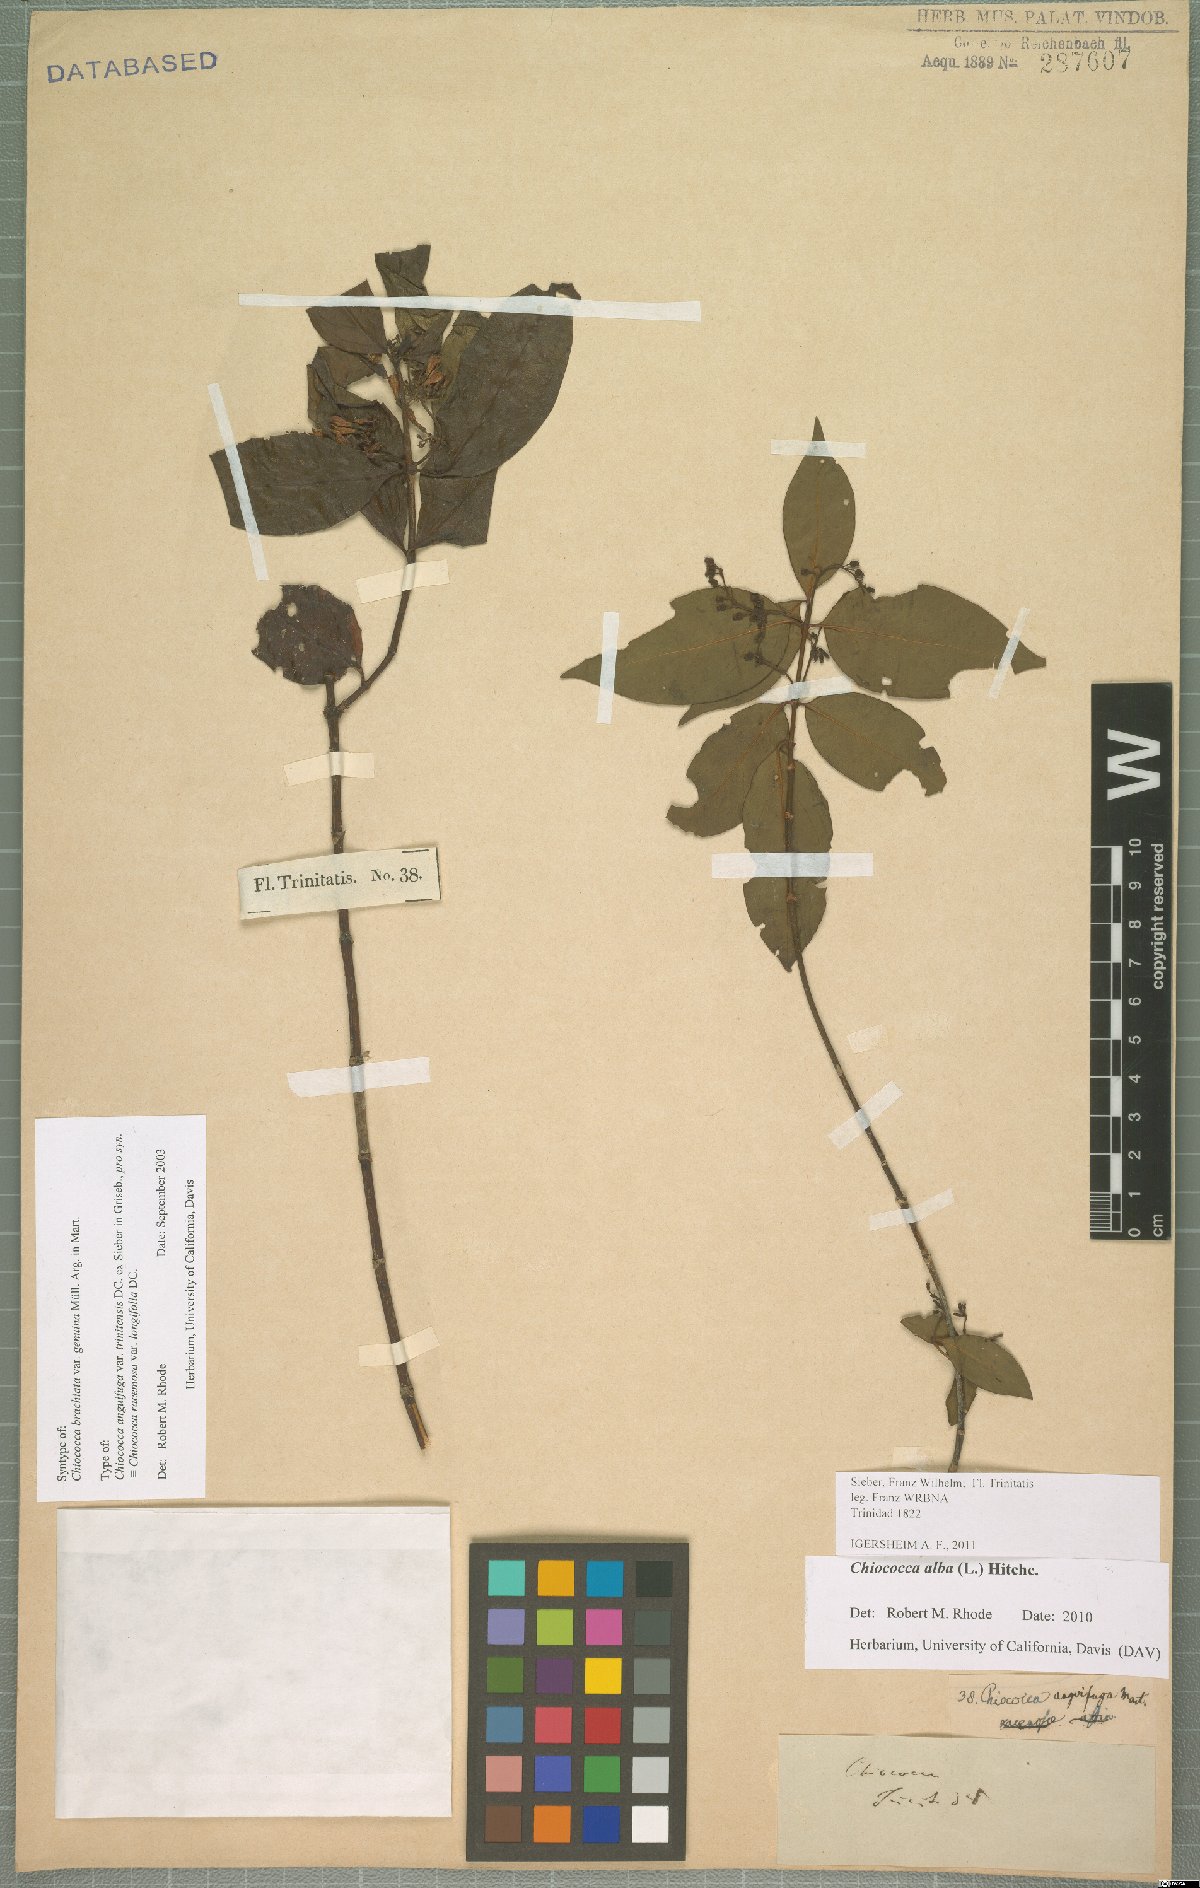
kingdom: Plantae
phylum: Tracheophyta
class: Magnoliopsida
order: Gentianales
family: Rubiaceae
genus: Chiococca
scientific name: Chiococca alba
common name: Snowberry
